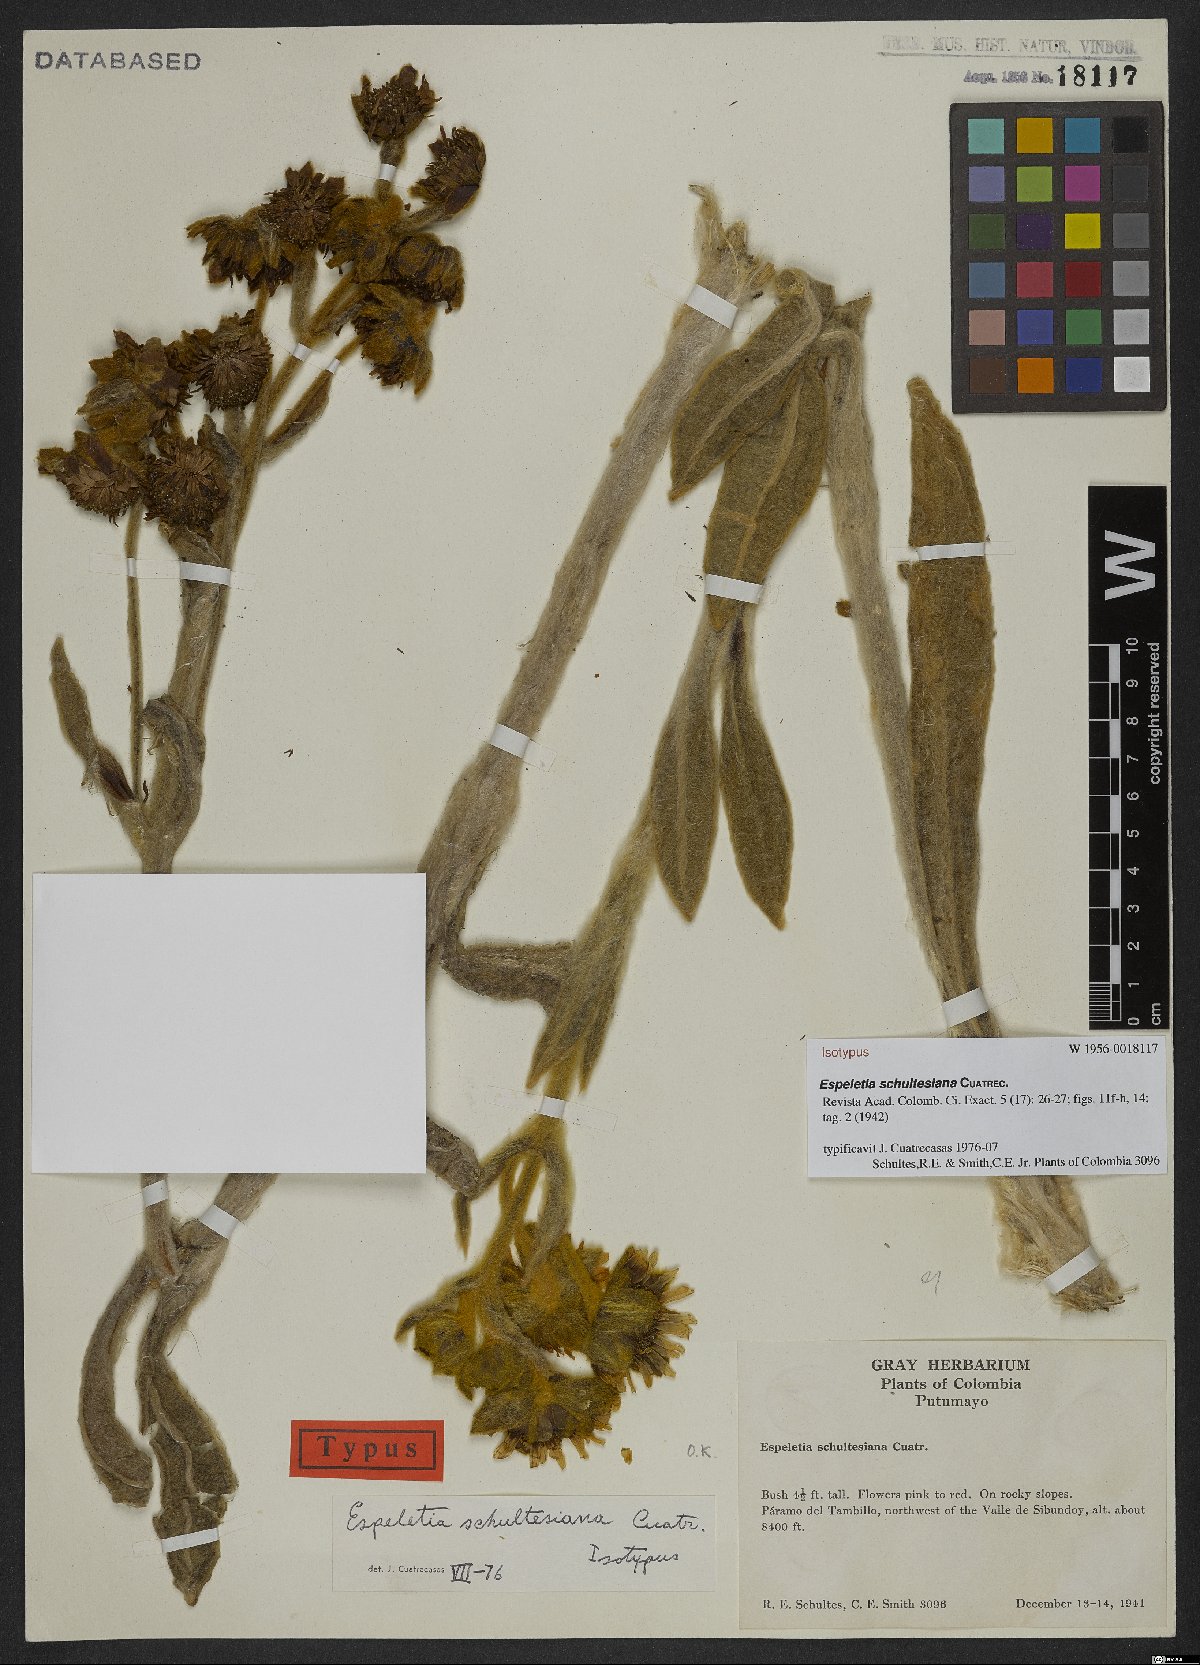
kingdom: Plantae
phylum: Tracheophyta
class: Magnoliopsida
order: Asterales
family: Asteraceae
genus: Espeletia
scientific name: Espeletia schultesiana
